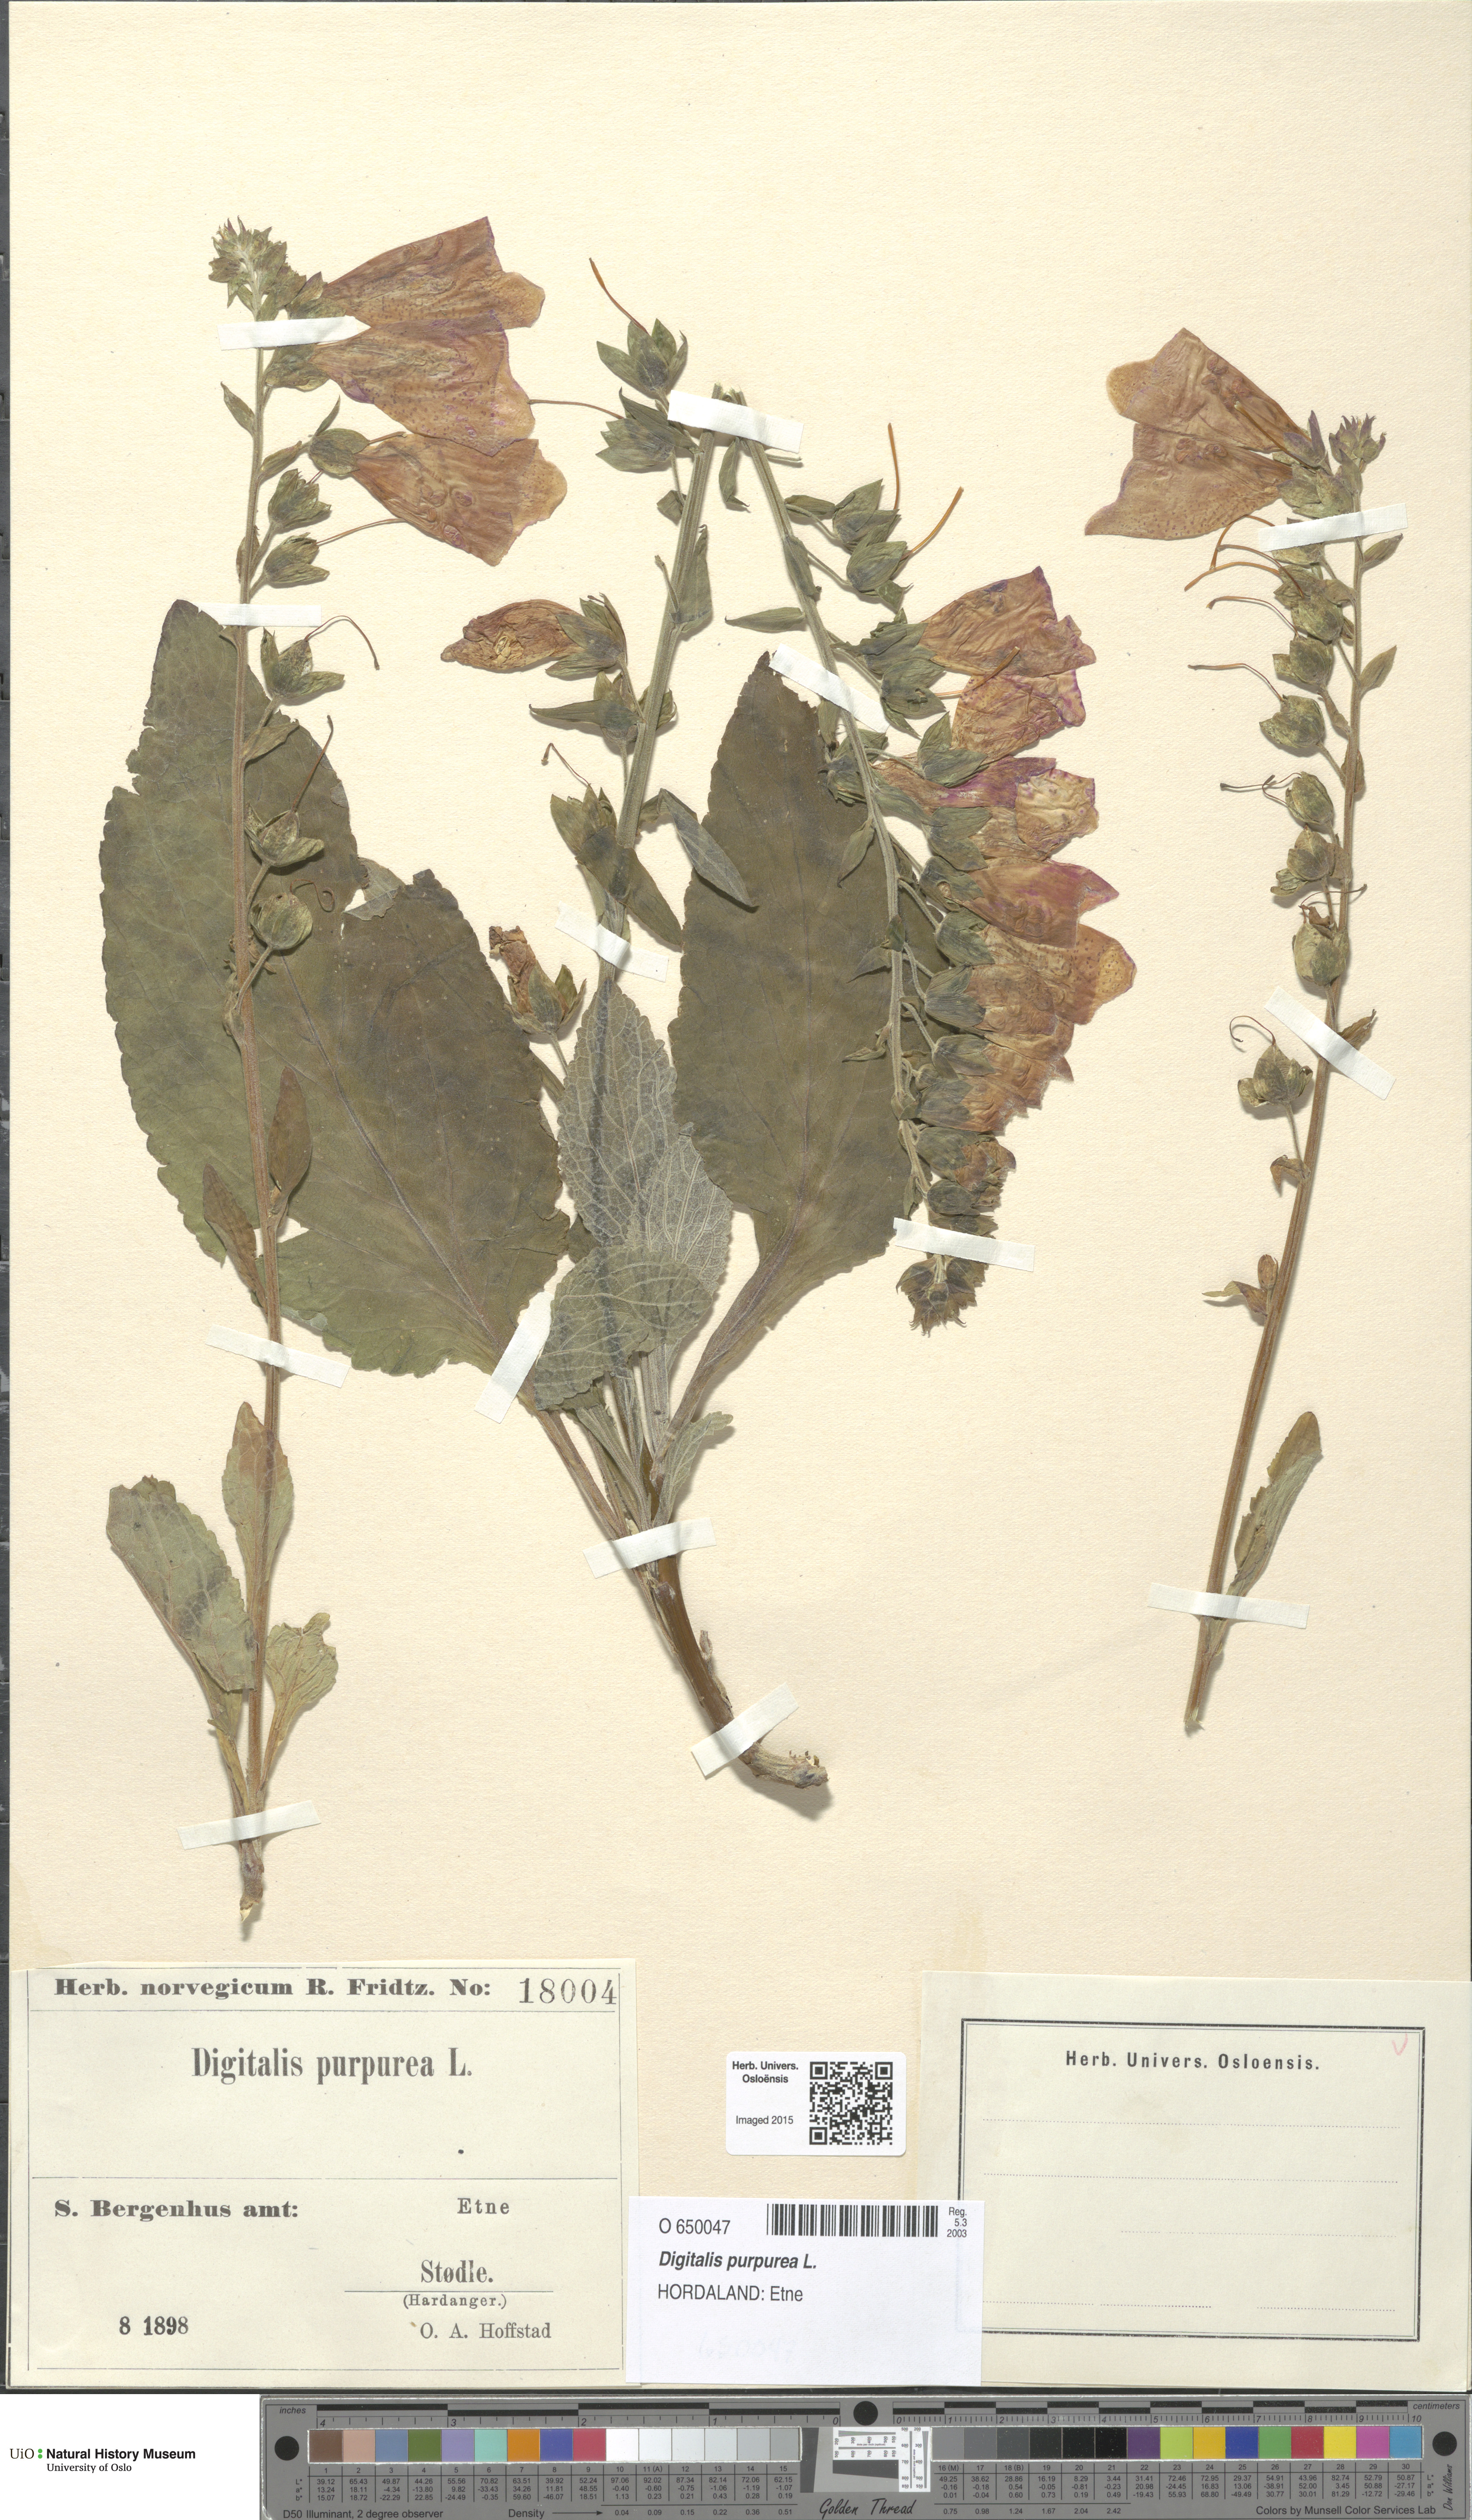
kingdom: Plantae
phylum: Tracheophyta
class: Magnoliopsida
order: Lamiales
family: Plantaginaceae
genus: Digitalis
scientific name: Digitalis purpurea
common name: Foxglove
